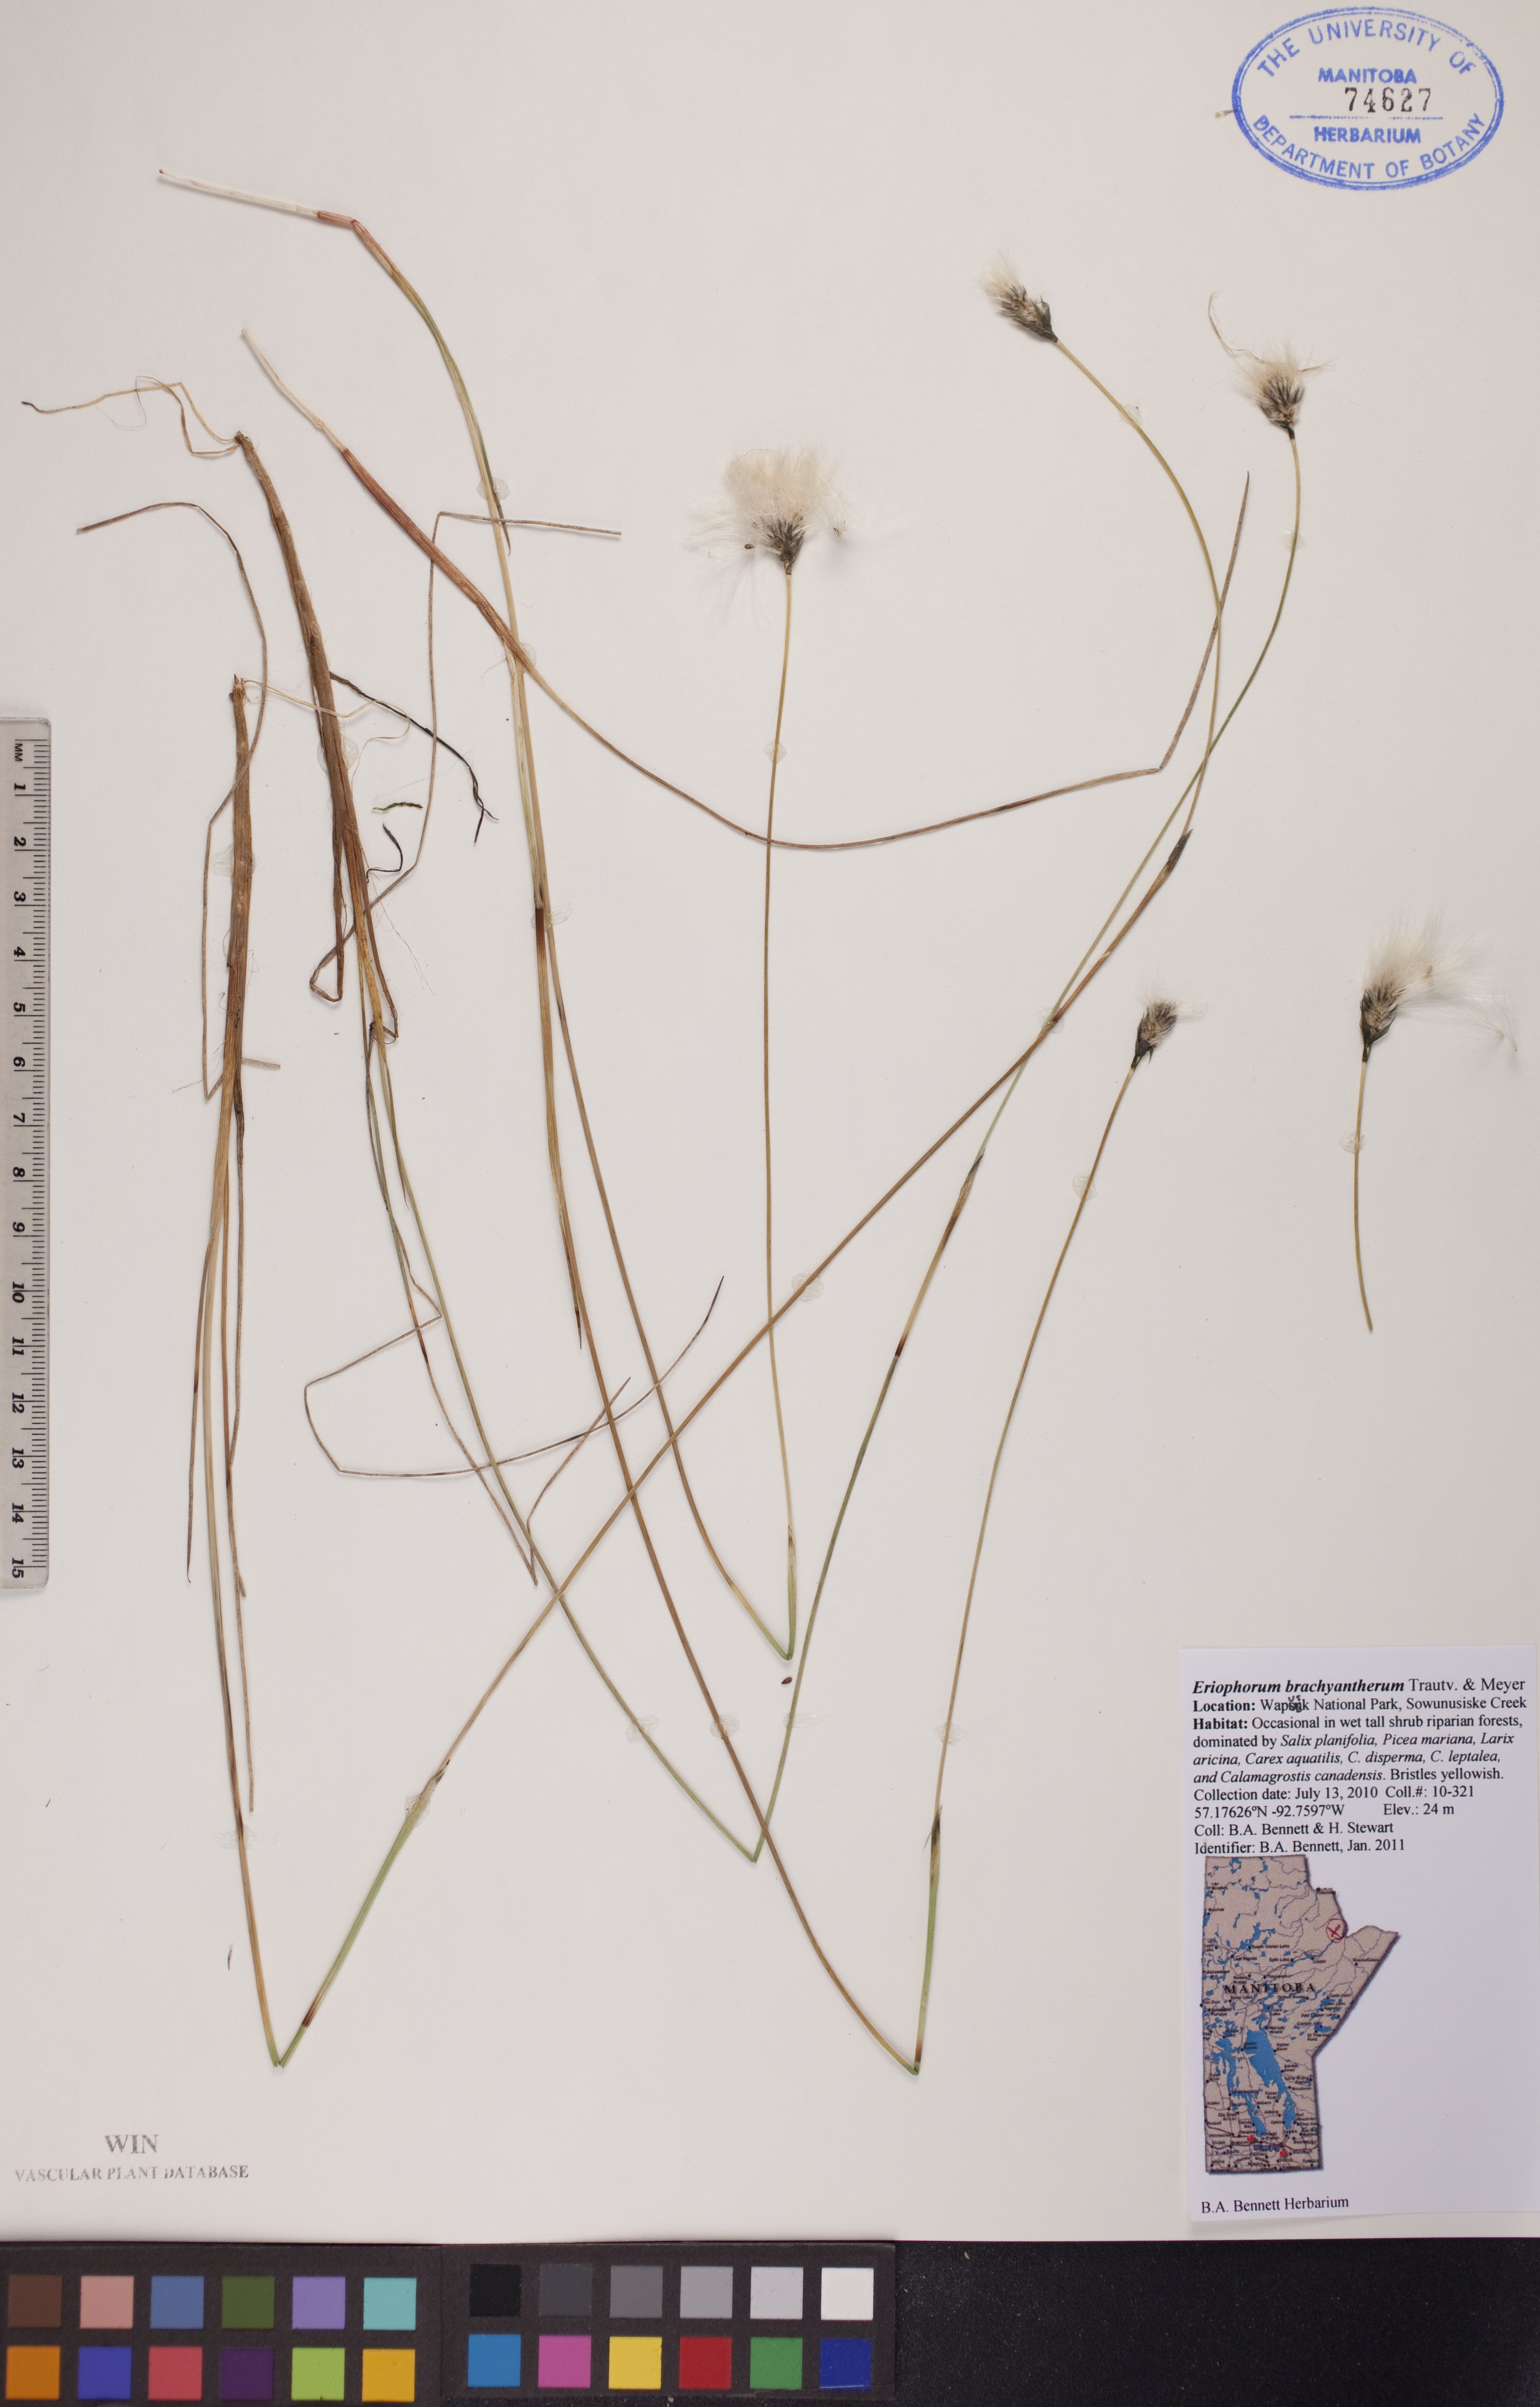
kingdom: Plantae
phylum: Tracheophyta
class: Liliopsida
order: Poales
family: Cyperaceae
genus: Eriophorum
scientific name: Eriophorum brachyantherum
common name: Closed-sheathed cottongrass
